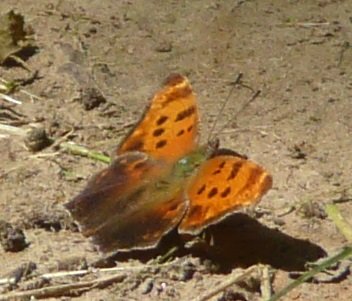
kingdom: Animalia
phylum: Arthropoda
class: Insecta
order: Lepidoptera
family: Nymphalidae
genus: Polygonia
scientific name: Polygonia comma
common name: Eastern Comma
